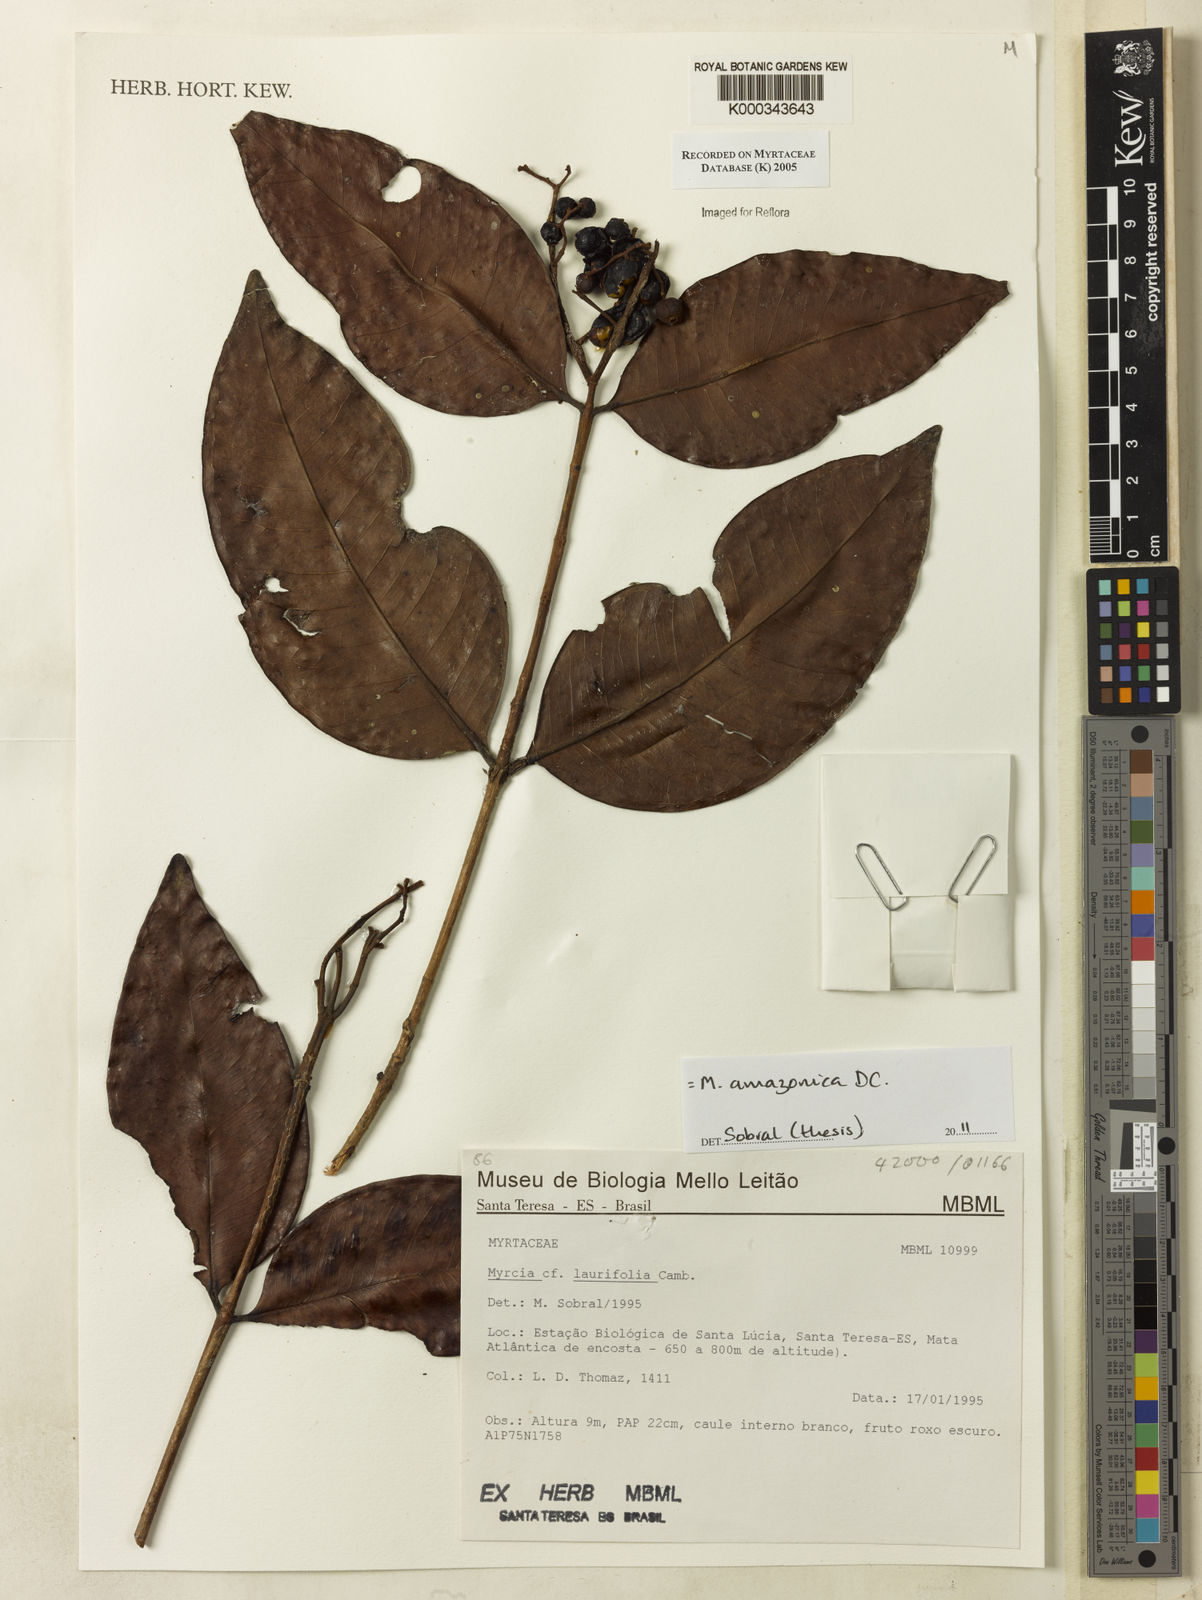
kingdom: Plantae
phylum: Tracheophyta
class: Magnoliopsida
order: Myrtales
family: Myrtaceae
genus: Myrcia
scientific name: Myrcia laurifolia
